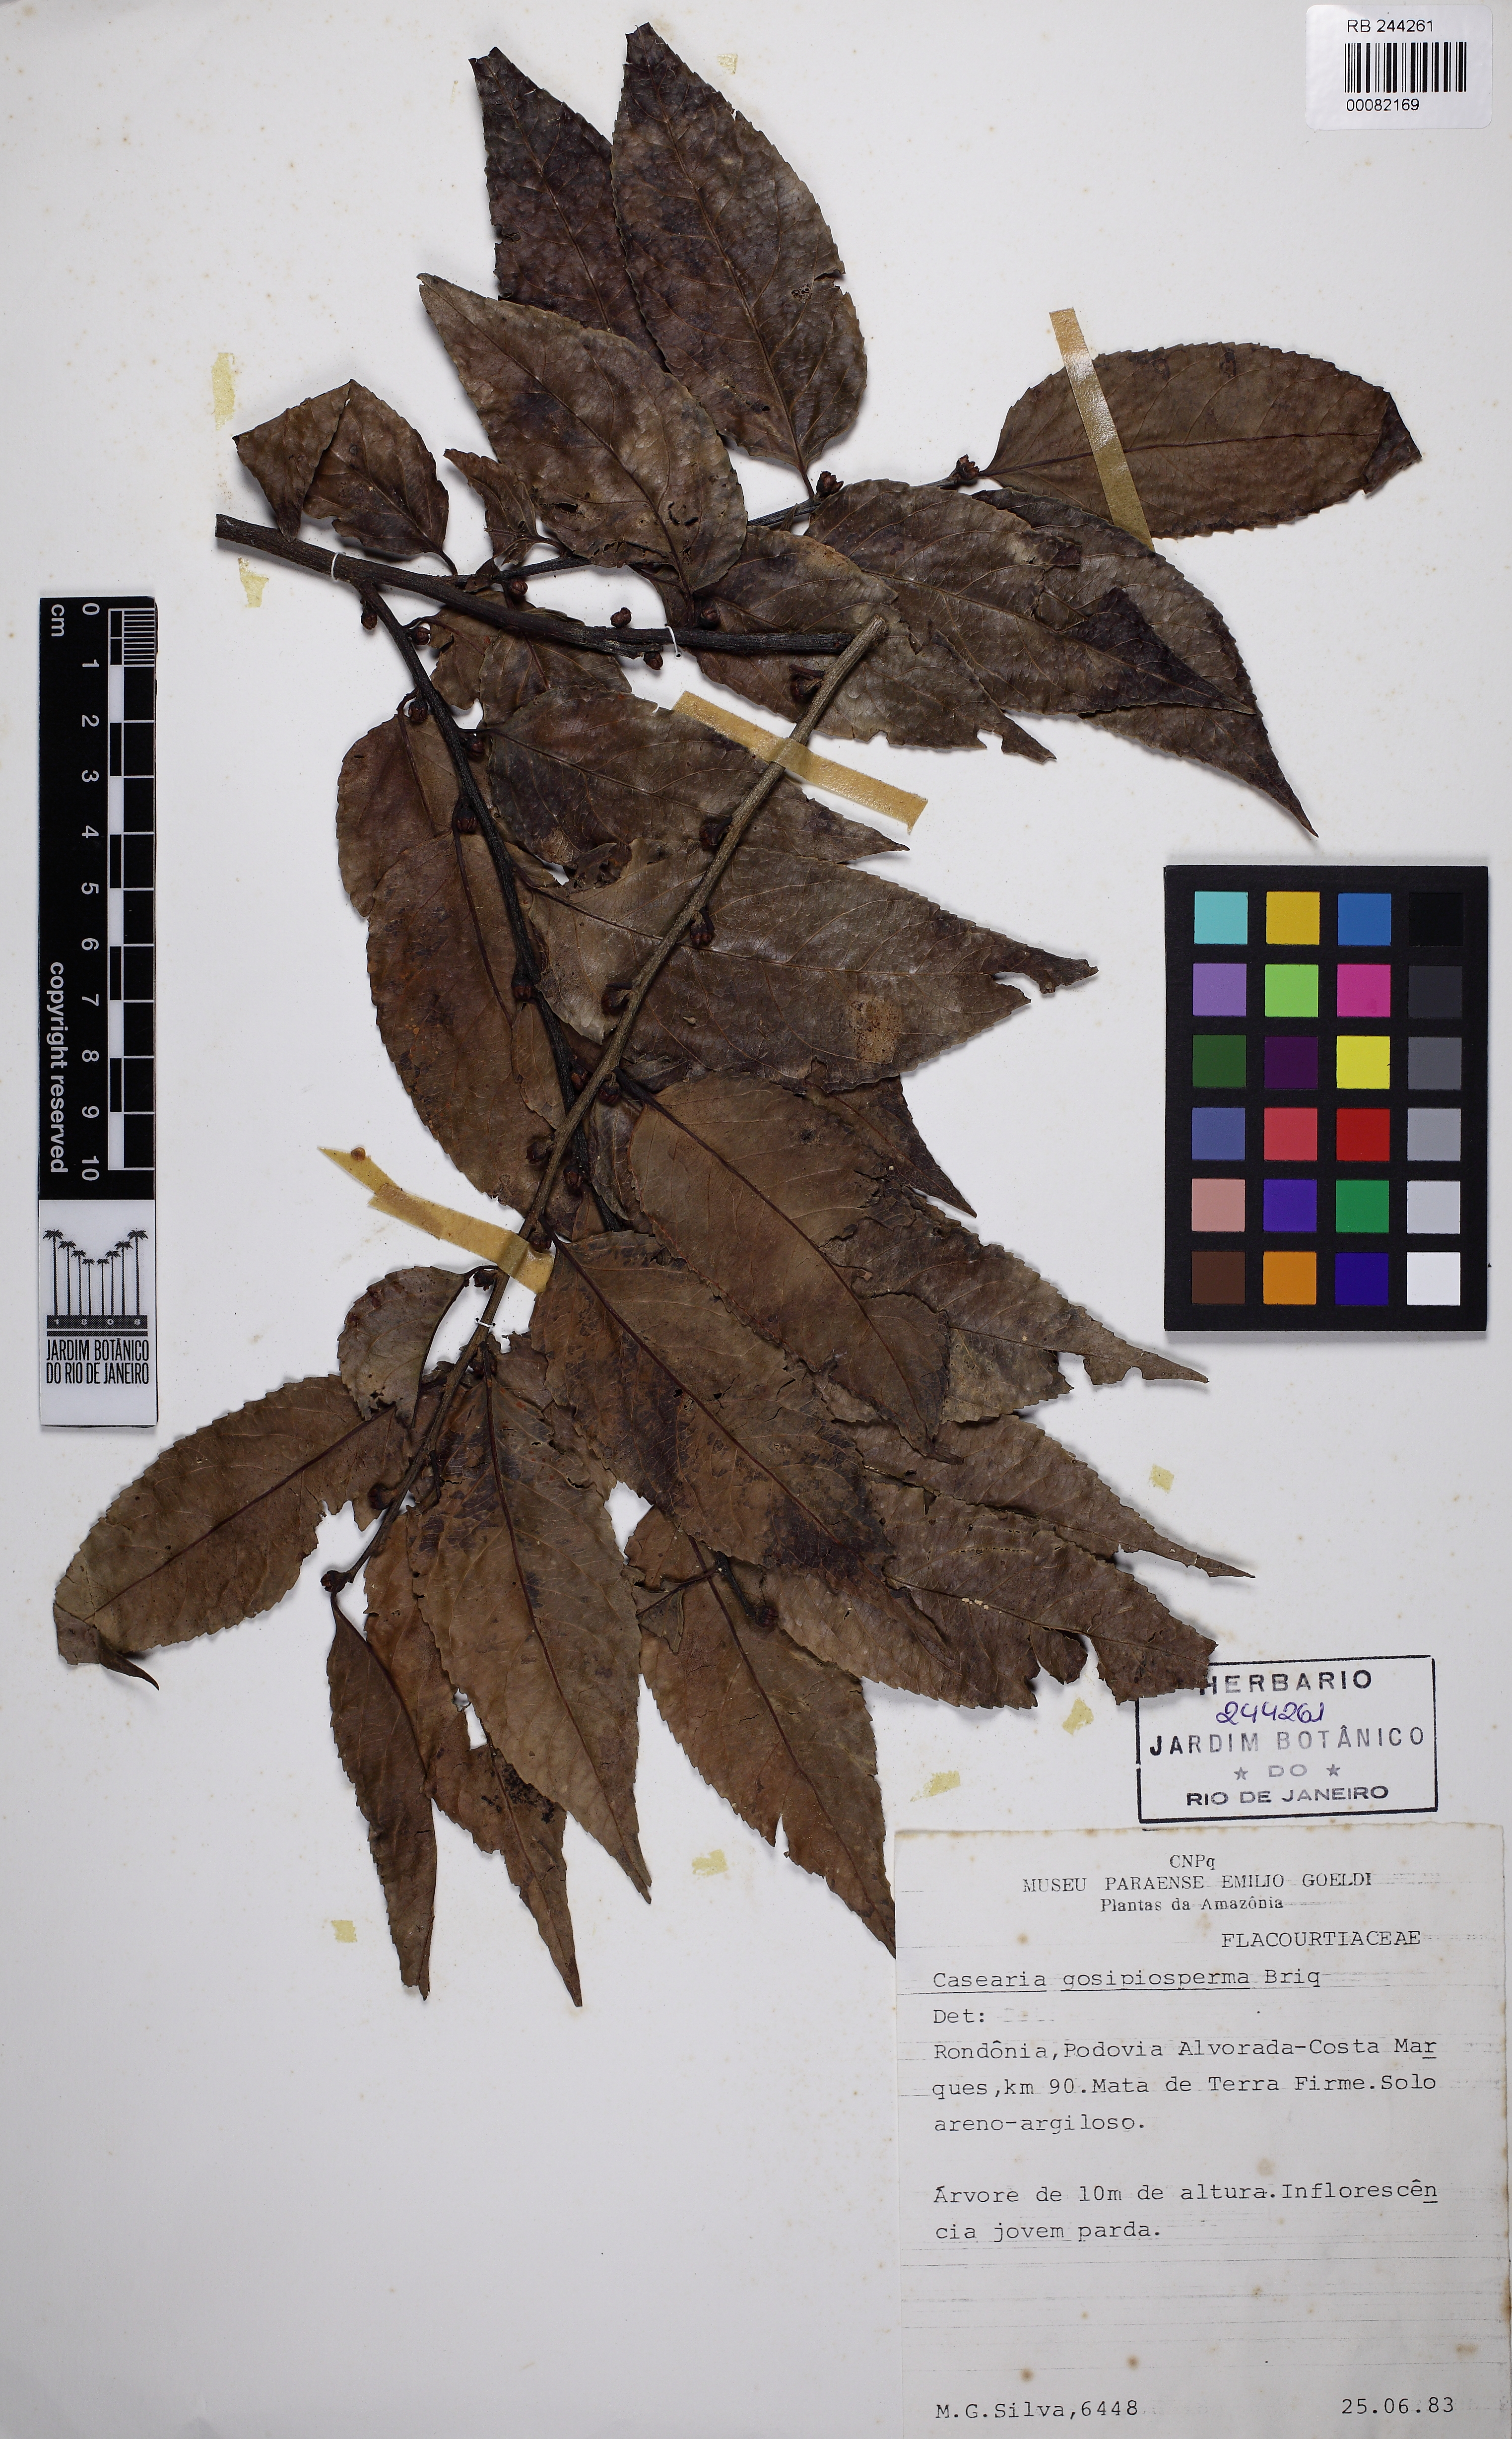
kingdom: Plantae
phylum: Tracheophyta
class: Magnoliopsida
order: Malpighiales
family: Salicaceae
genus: Casearia
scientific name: Casearia gossypiosperma
